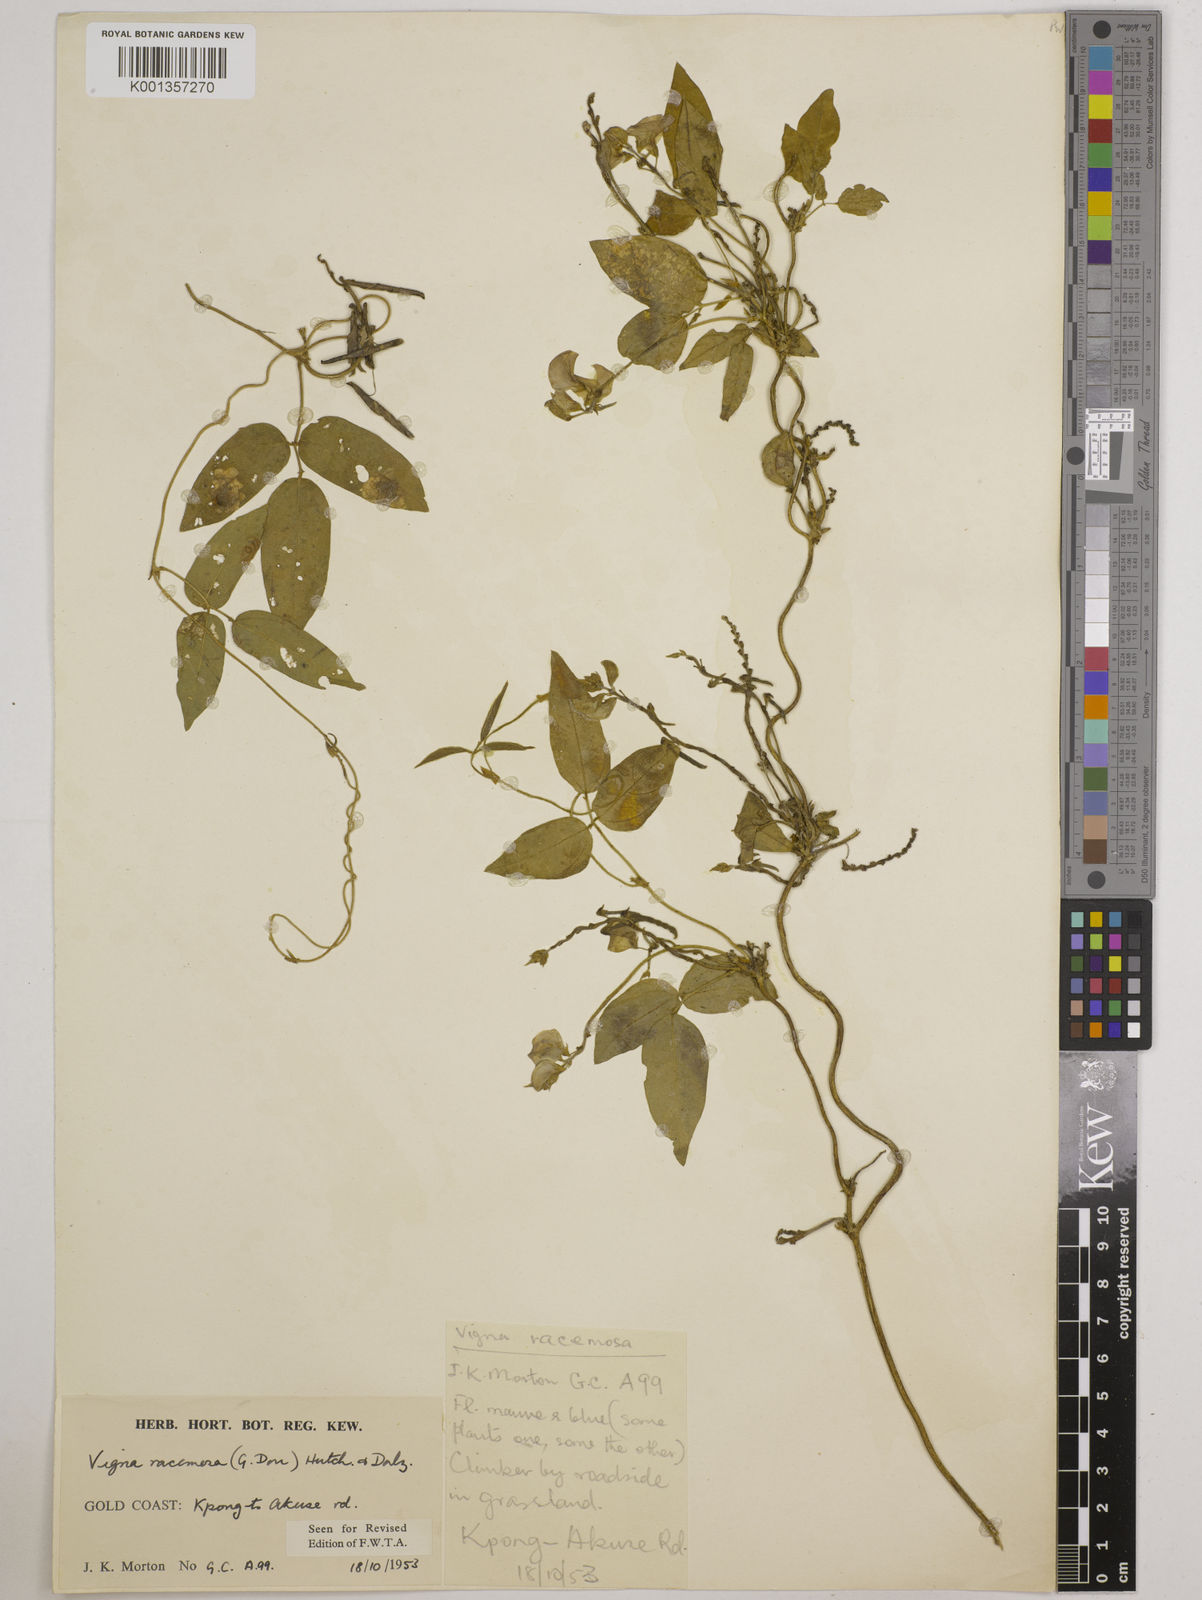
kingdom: Plantae
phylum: Tracheophyta
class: Magnoliopsida
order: Fabales
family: Fabaceae
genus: Vigna
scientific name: Vigna racemosa
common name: Beans not eaten
